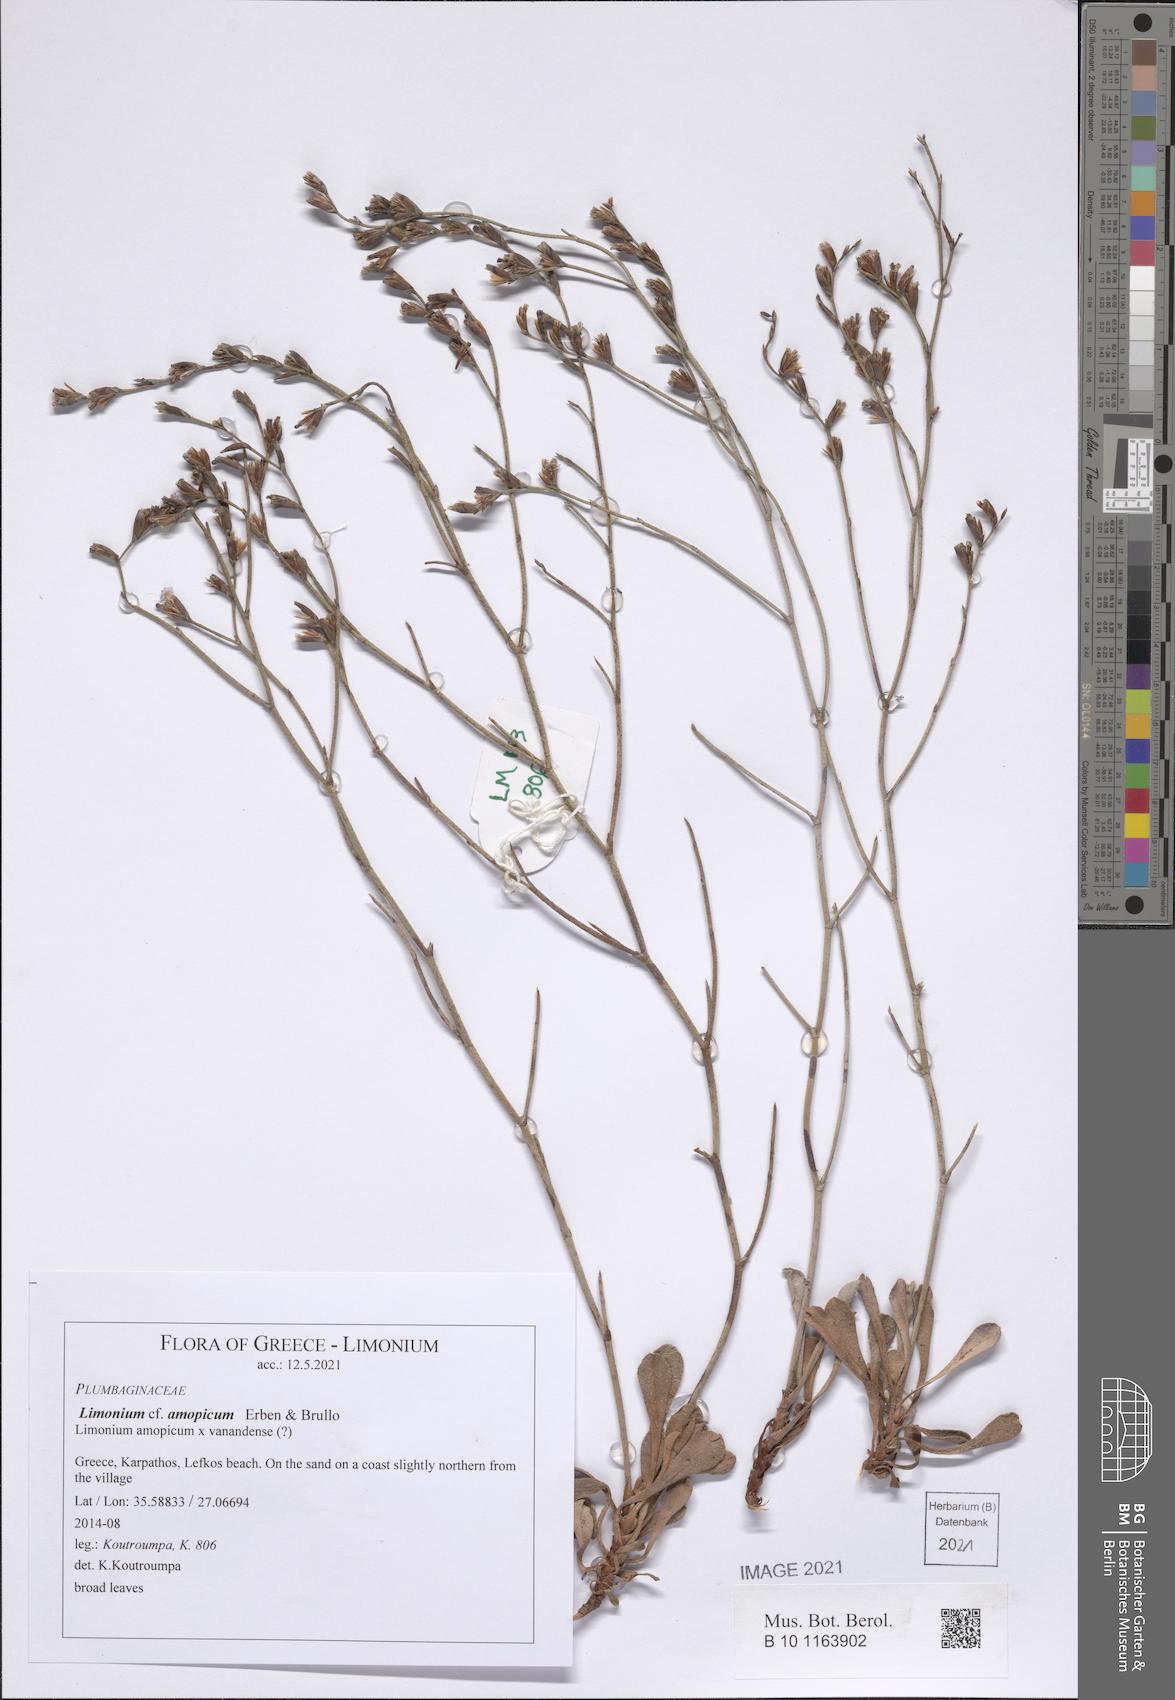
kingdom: Plantae
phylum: Tracheophyta
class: Magnoliopsida
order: Caryophyllales
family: Plumbaginaceae
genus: Limonium
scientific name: Limonium amopicum
